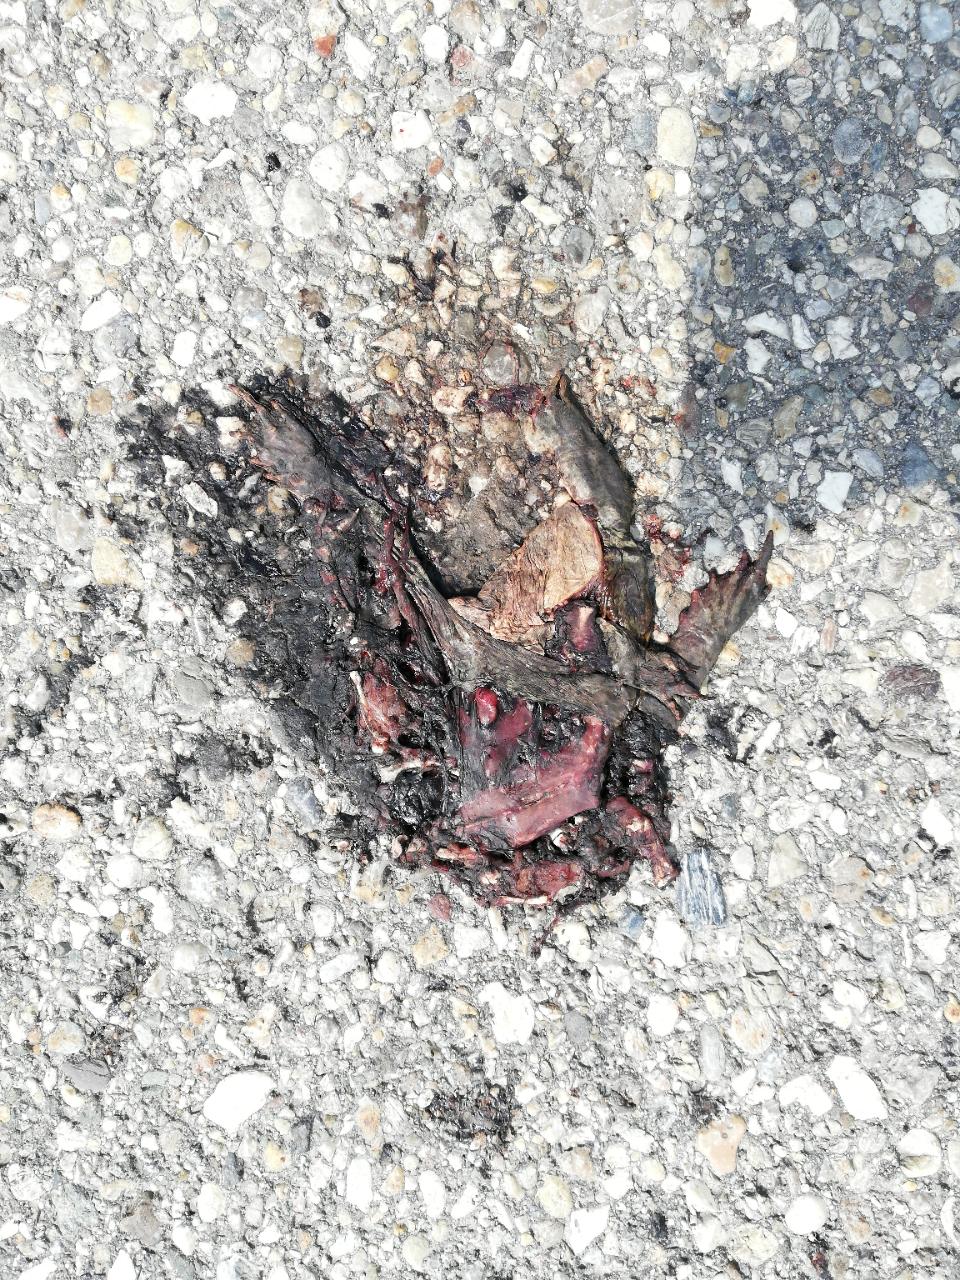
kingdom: Animalia
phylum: Chordata
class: Amphibia
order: Anura
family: Bufonidae
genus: Bufo
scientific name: Bufo bufo
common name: Common toad
